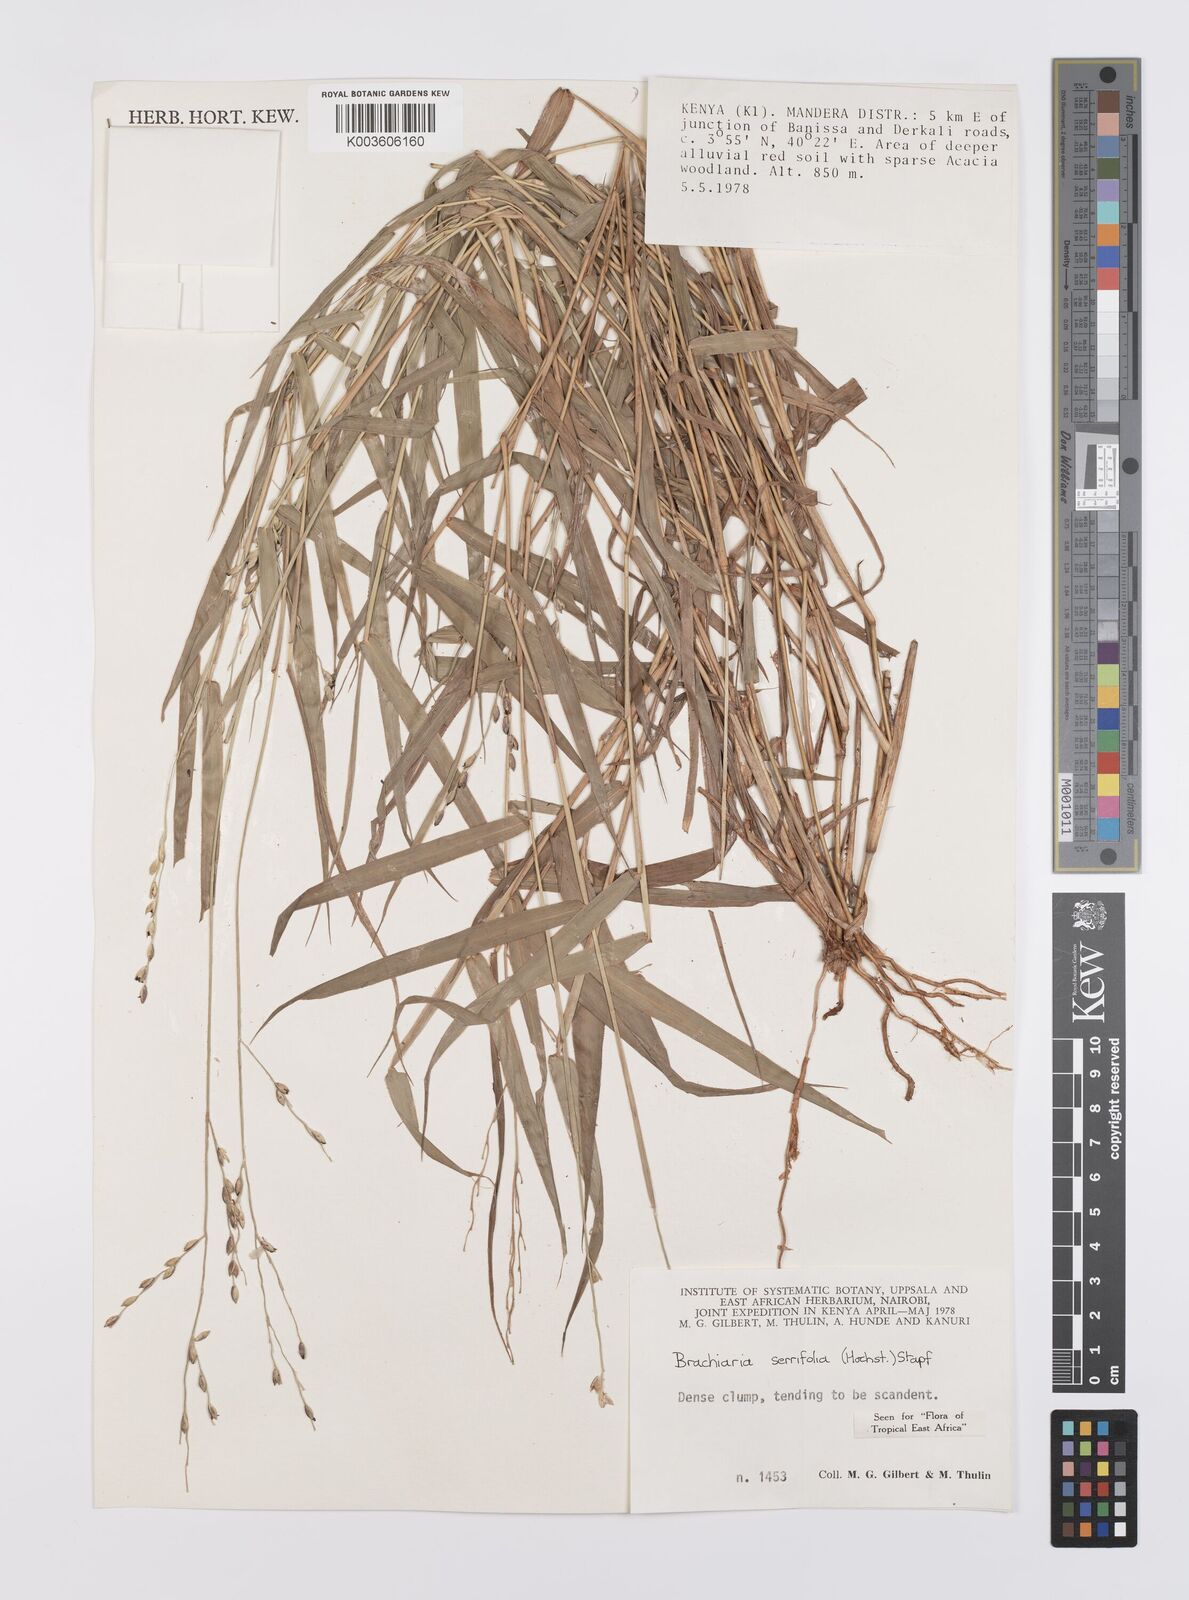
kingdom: Plantae
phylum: Tracheophyta
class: Liliopsida
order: Poales
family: Poaceae
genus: Urochloa
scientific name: Urochloa serrifolia
